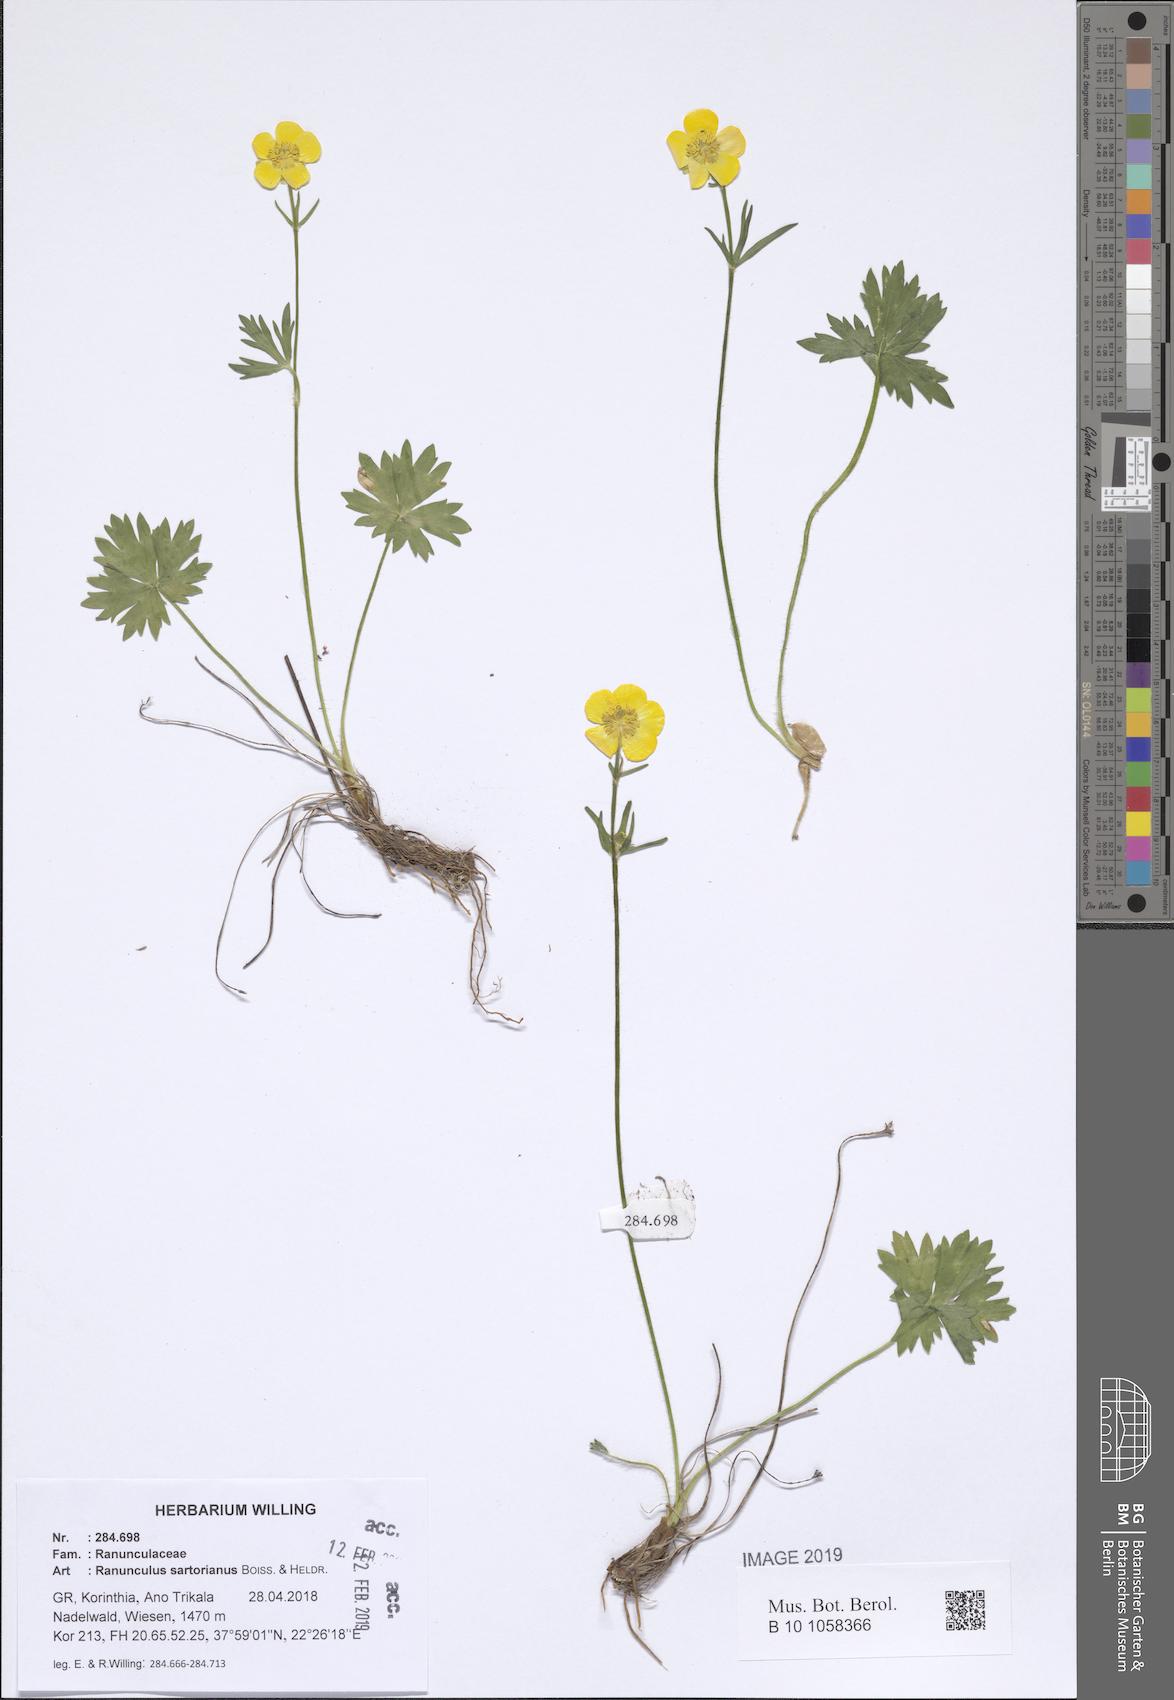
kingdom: Plantae
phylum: Tracheophyta
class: Magnoliopsida
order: Ranunculales
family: Ranunculaceae
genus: Ranunculus
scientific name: Ranunculus sartorianus
